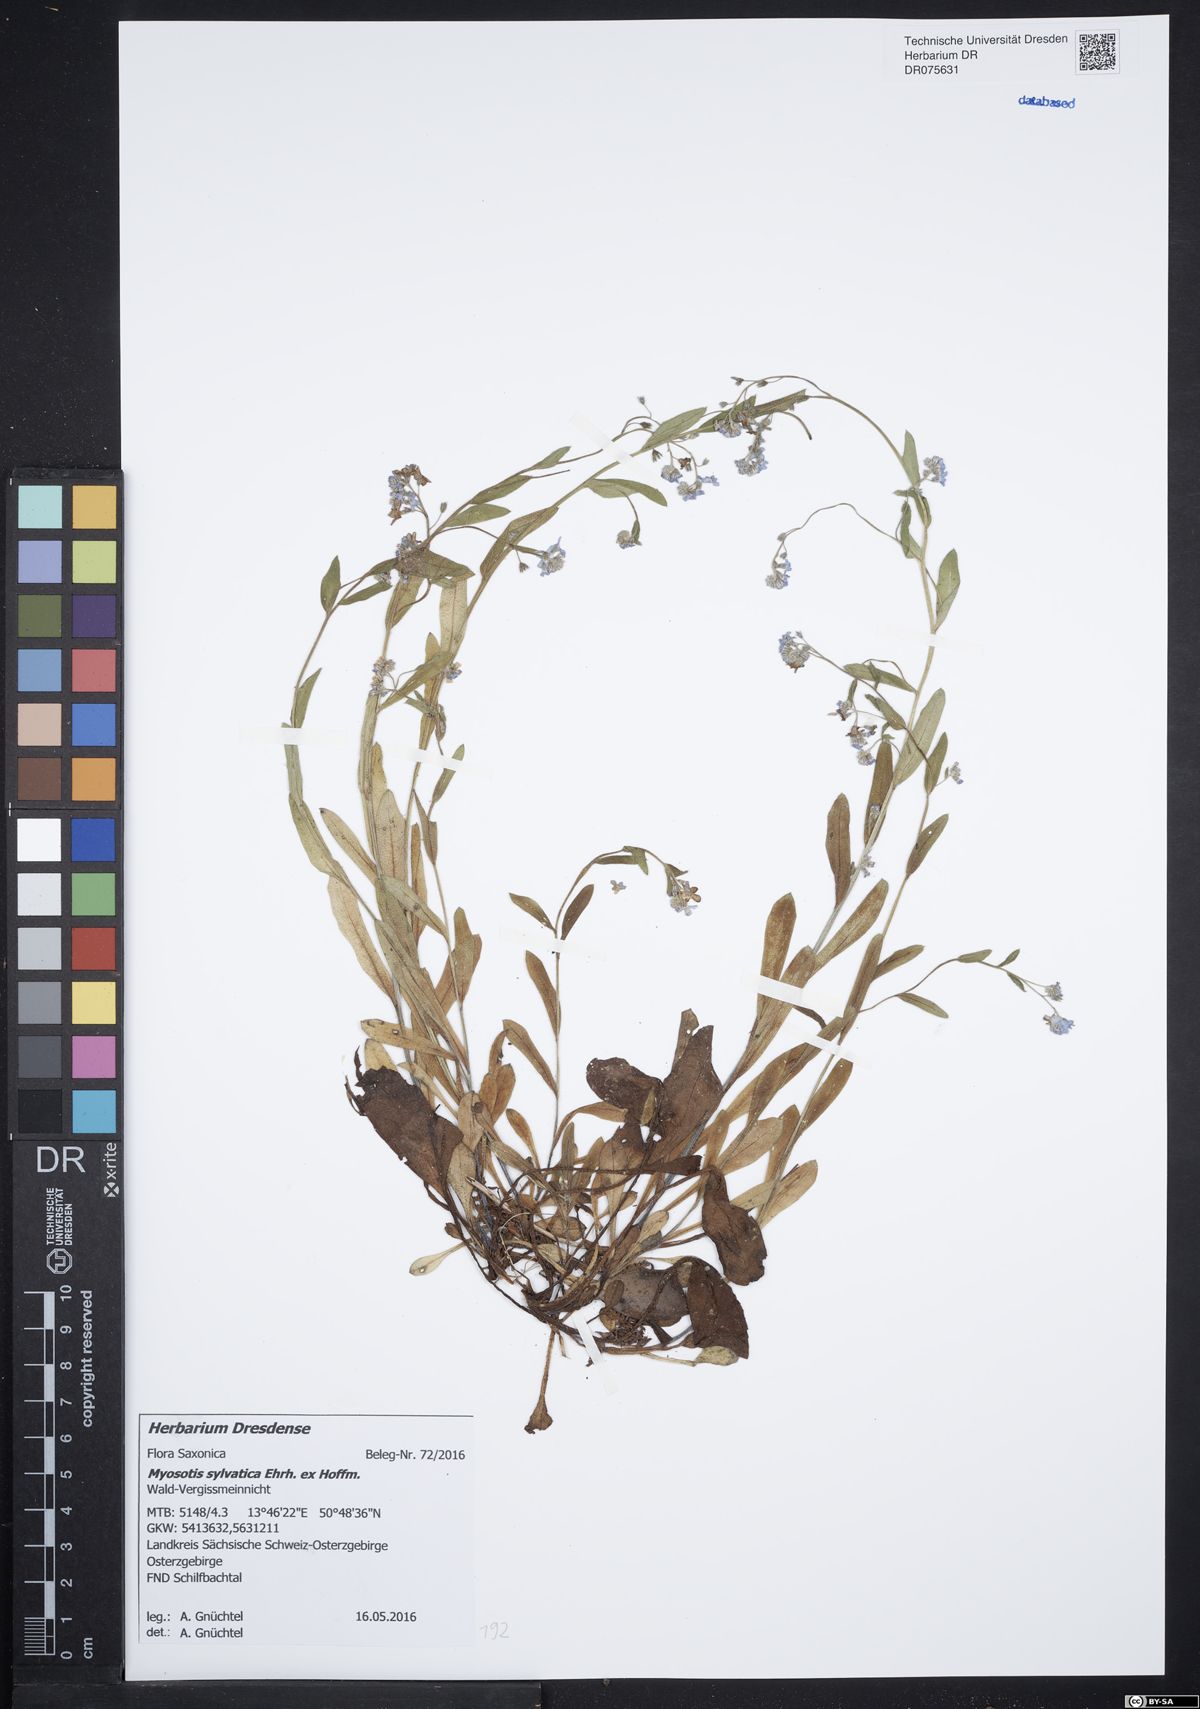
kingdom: Plantae
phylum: Tracheophyta
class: Magnoliopsida
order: Boraginales
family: Boraginaceae
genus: Myosotis
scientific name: Myosotis sylvatica
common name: Wood forget-me-not
